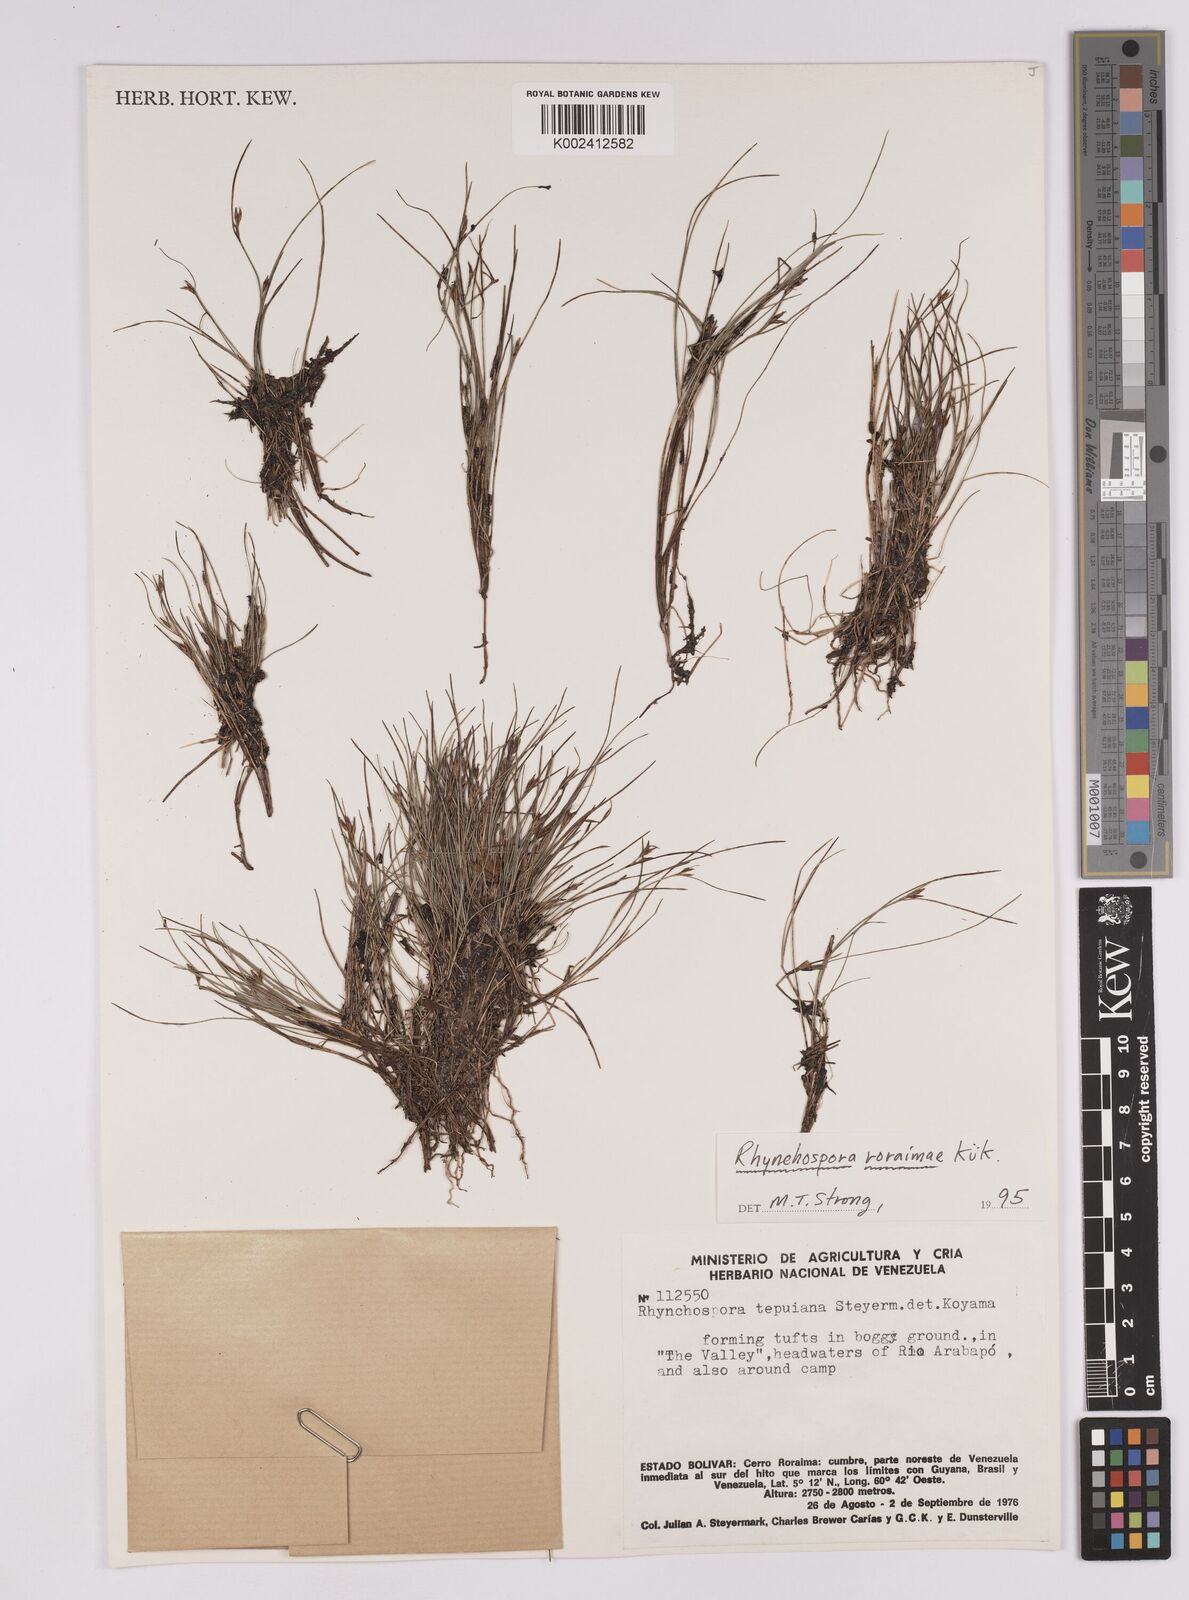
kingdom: Plantae
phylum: Tracheophyta
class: Liliopsida
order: Poales
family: Cyperaceae
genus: Rhynchospora
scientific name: Rhynchospora roraimae
